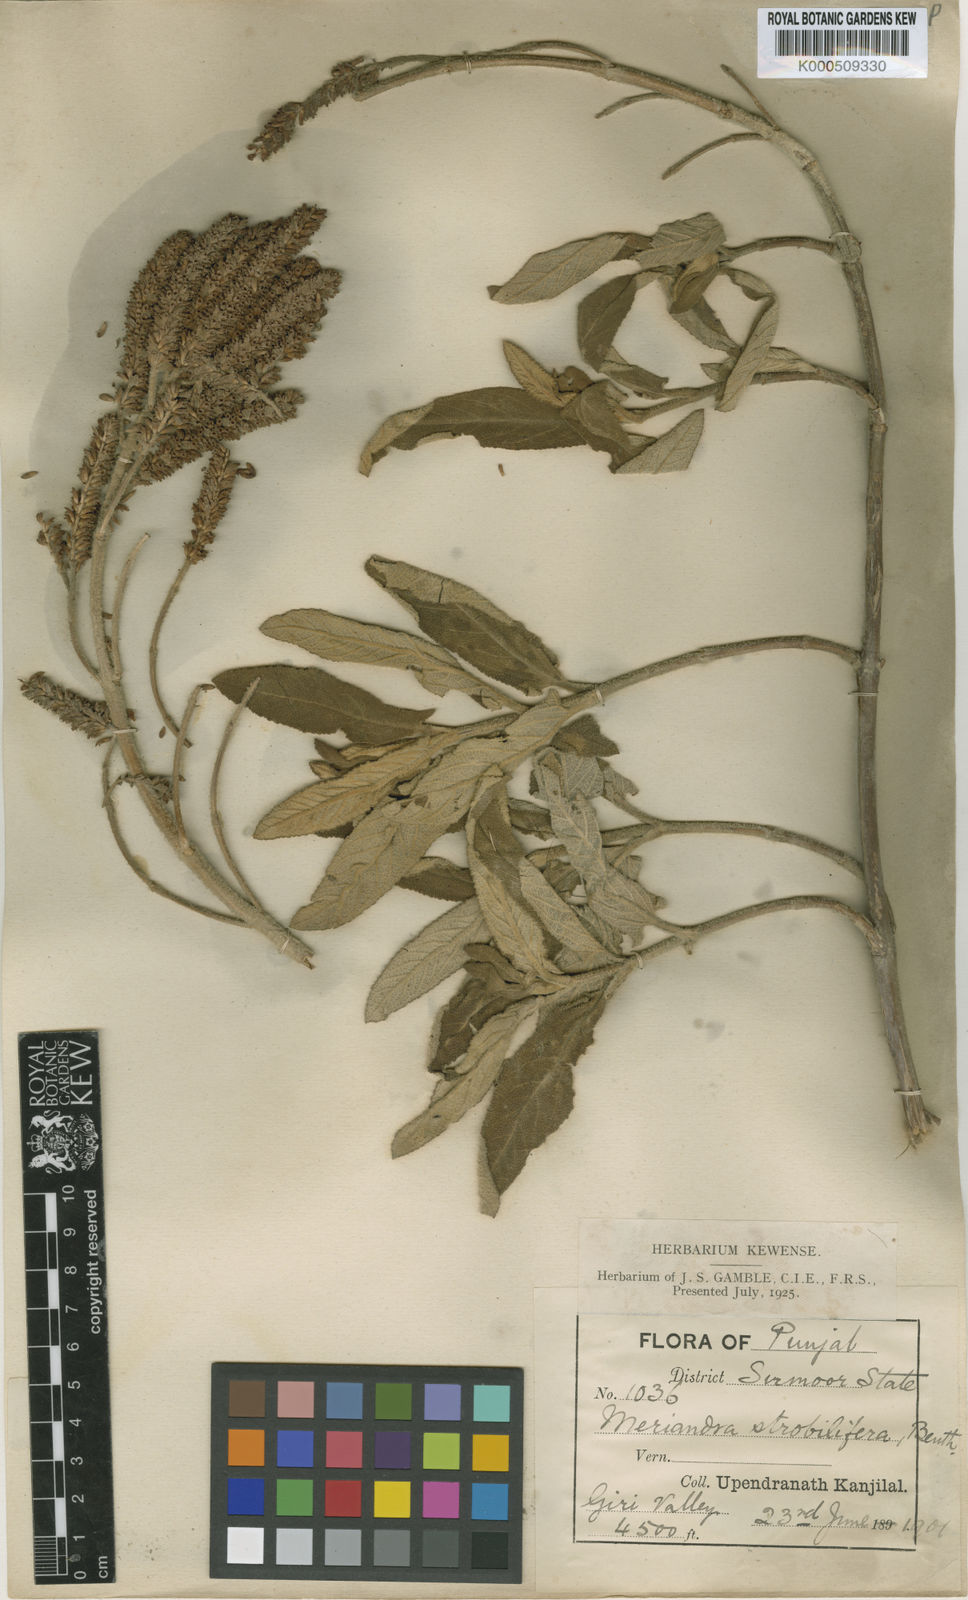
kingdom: Plantae
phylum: Tracheophyta
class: Magnoliopsida
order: Lamiales
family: Lamiaceae
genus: Salvia
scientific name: Salvia strobilifera
